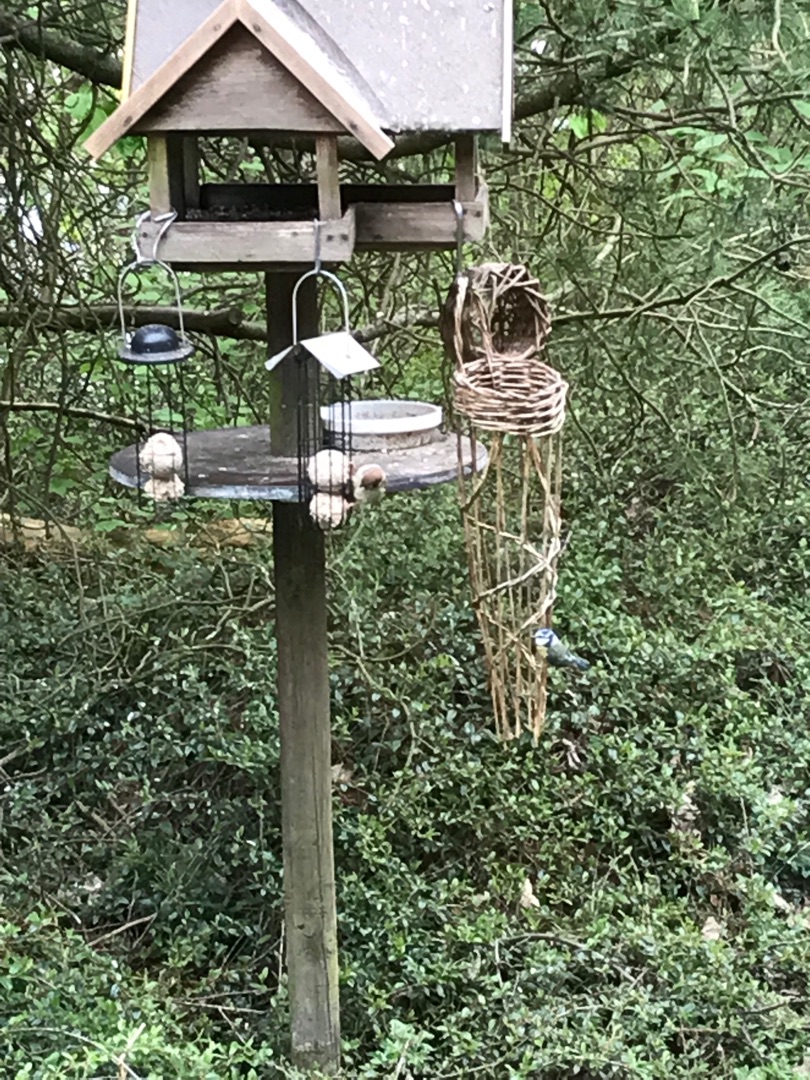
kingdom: Animalia
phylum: Chordata
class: Aves
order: Passeriformes
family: Paridae
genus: Cyanistes
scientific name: Cyanistes caeruleus
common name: Blåmejse
